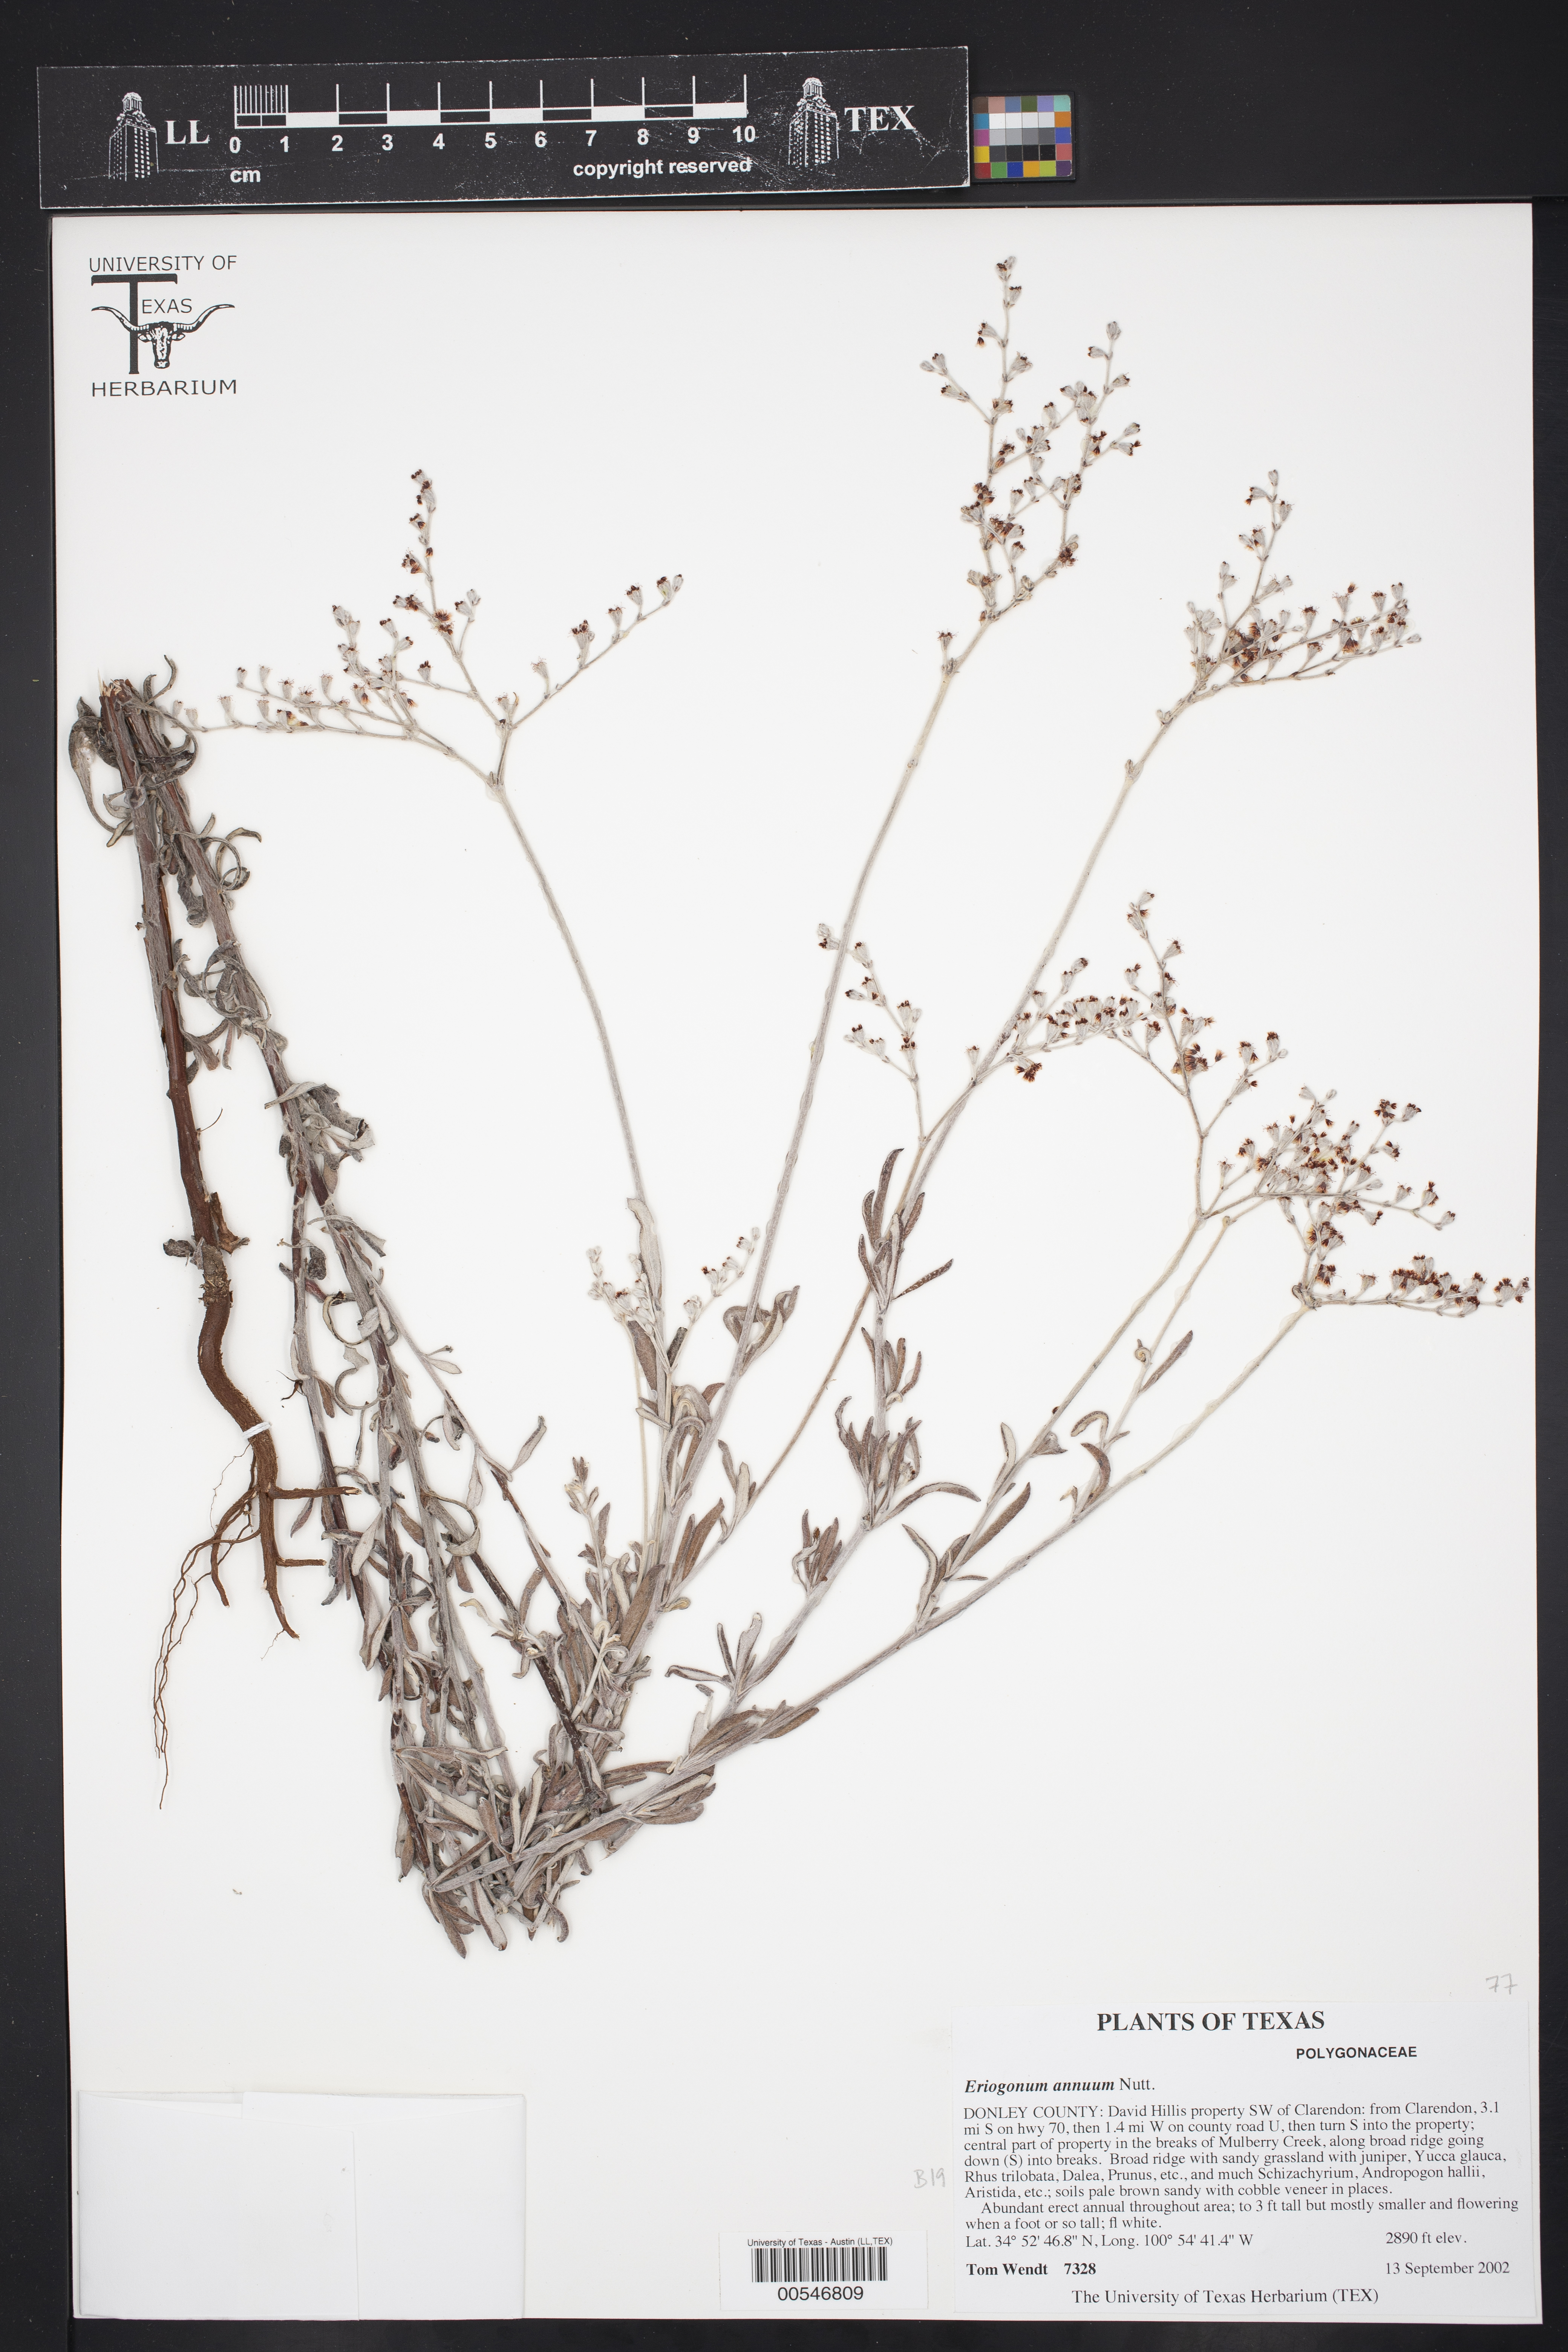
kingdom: Plantae
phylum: Tracheophyta
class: Magnoliopsida
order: Caryophyllales
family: Polygonaceae
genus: Eriogonum
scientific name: Eriogonum annuum
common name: Annual wild buckwheat
